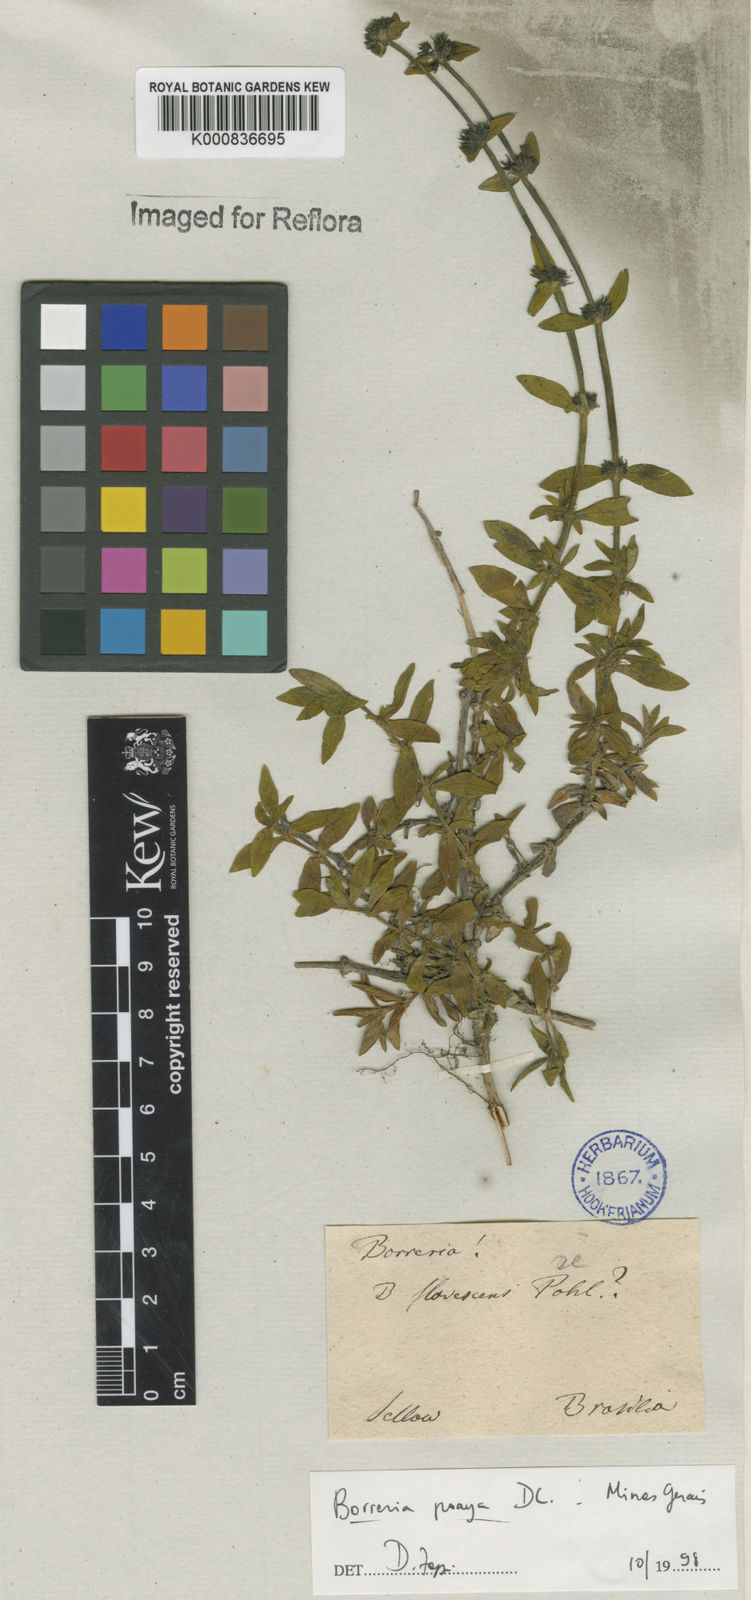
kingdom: Plantae
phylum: Tracheophyta
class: Magnoliopsida
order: Gentianales
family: Rubiaceae
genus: Spermacoce
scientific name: Spermacoce poaya
